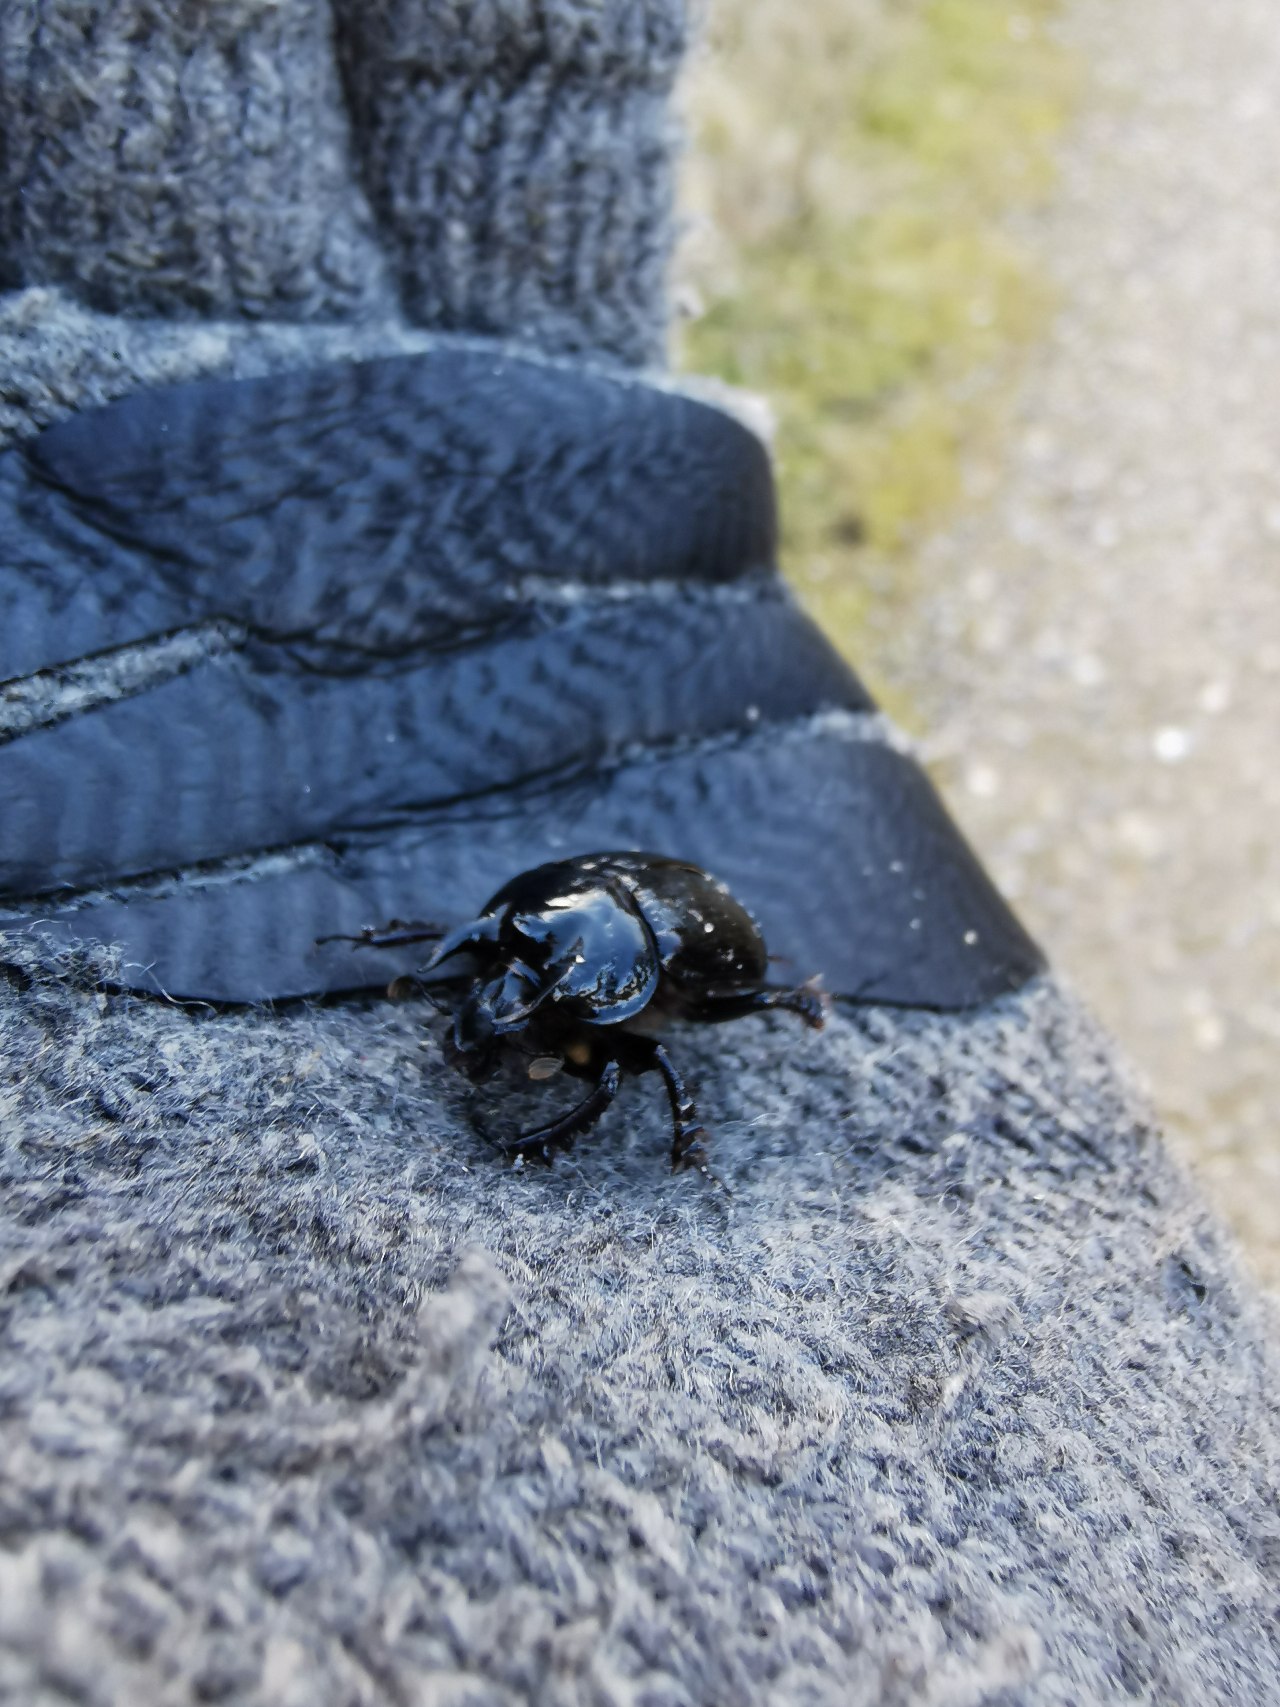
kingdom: Animalia
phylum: Arthropoda
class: Insecta
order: Coleoptera
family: Geotrupidae
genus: Typhaeus
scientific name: Typhaeus typhoeus
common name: Trehornet skarnbasse
